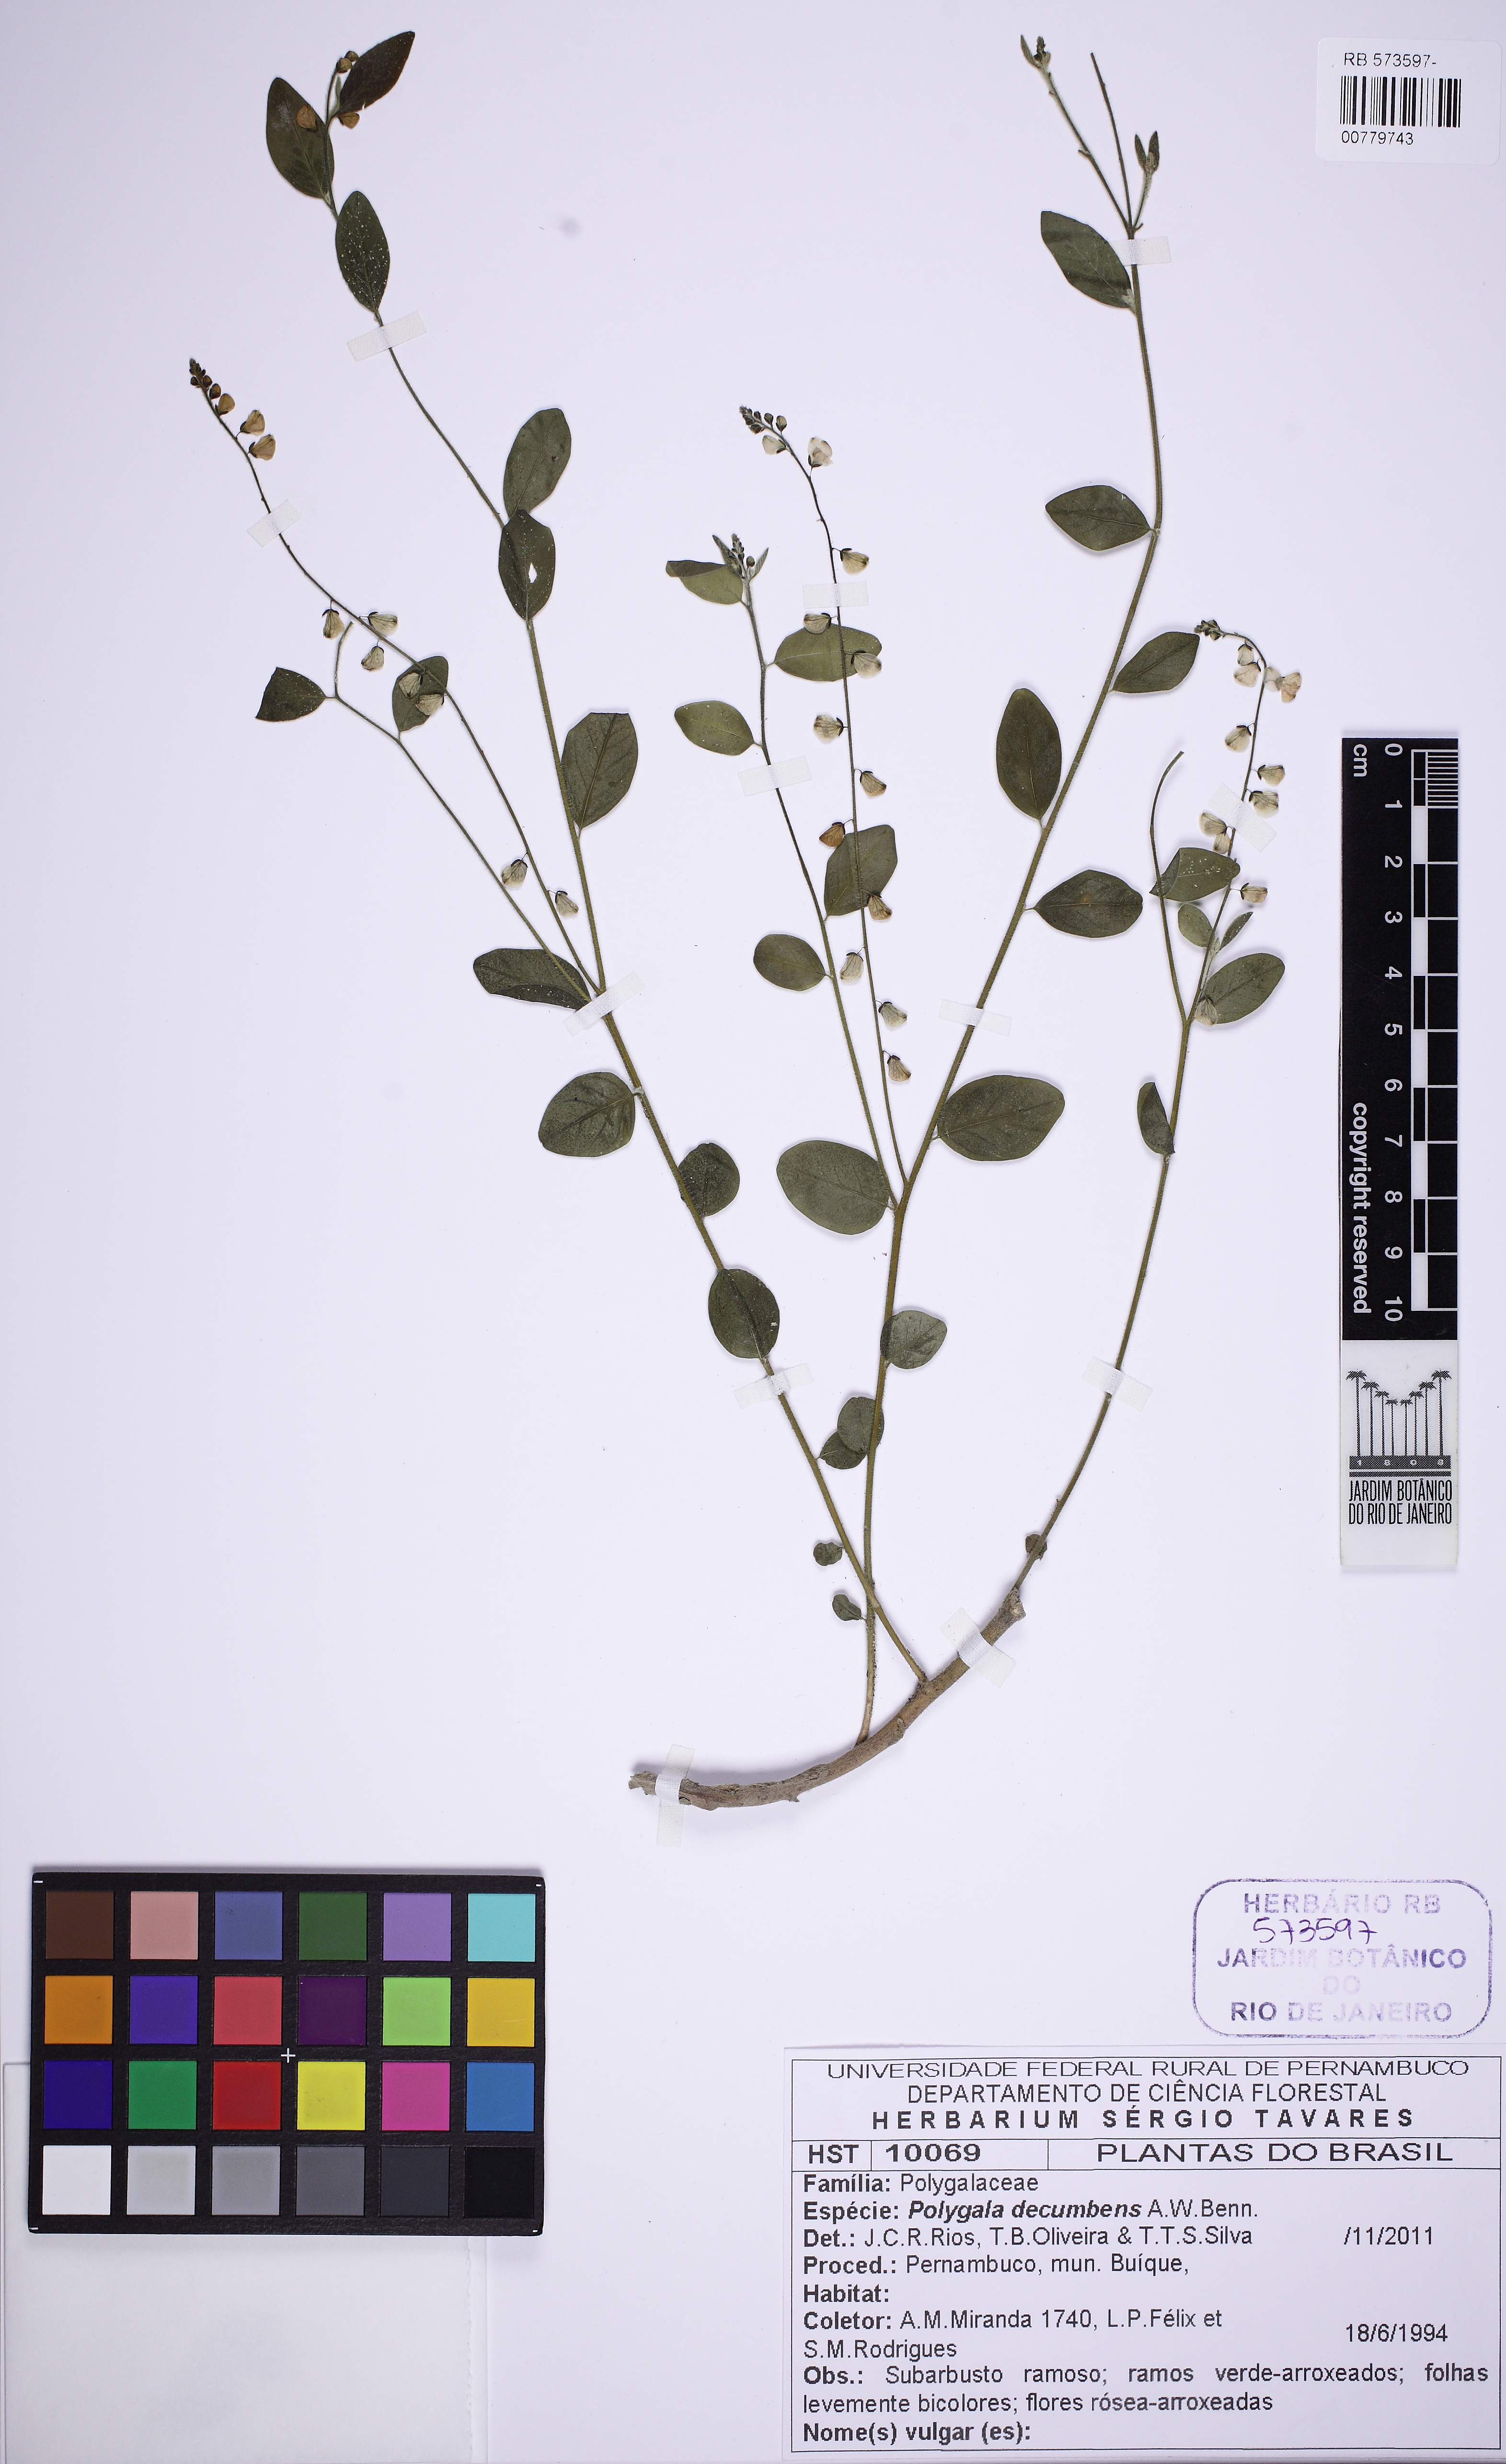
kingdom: Plantae
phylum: Tracheophyta
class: Magnoliopsida
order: Fabales
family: Polygalaceae
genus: Asemeia
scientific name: Asemeia ovata
